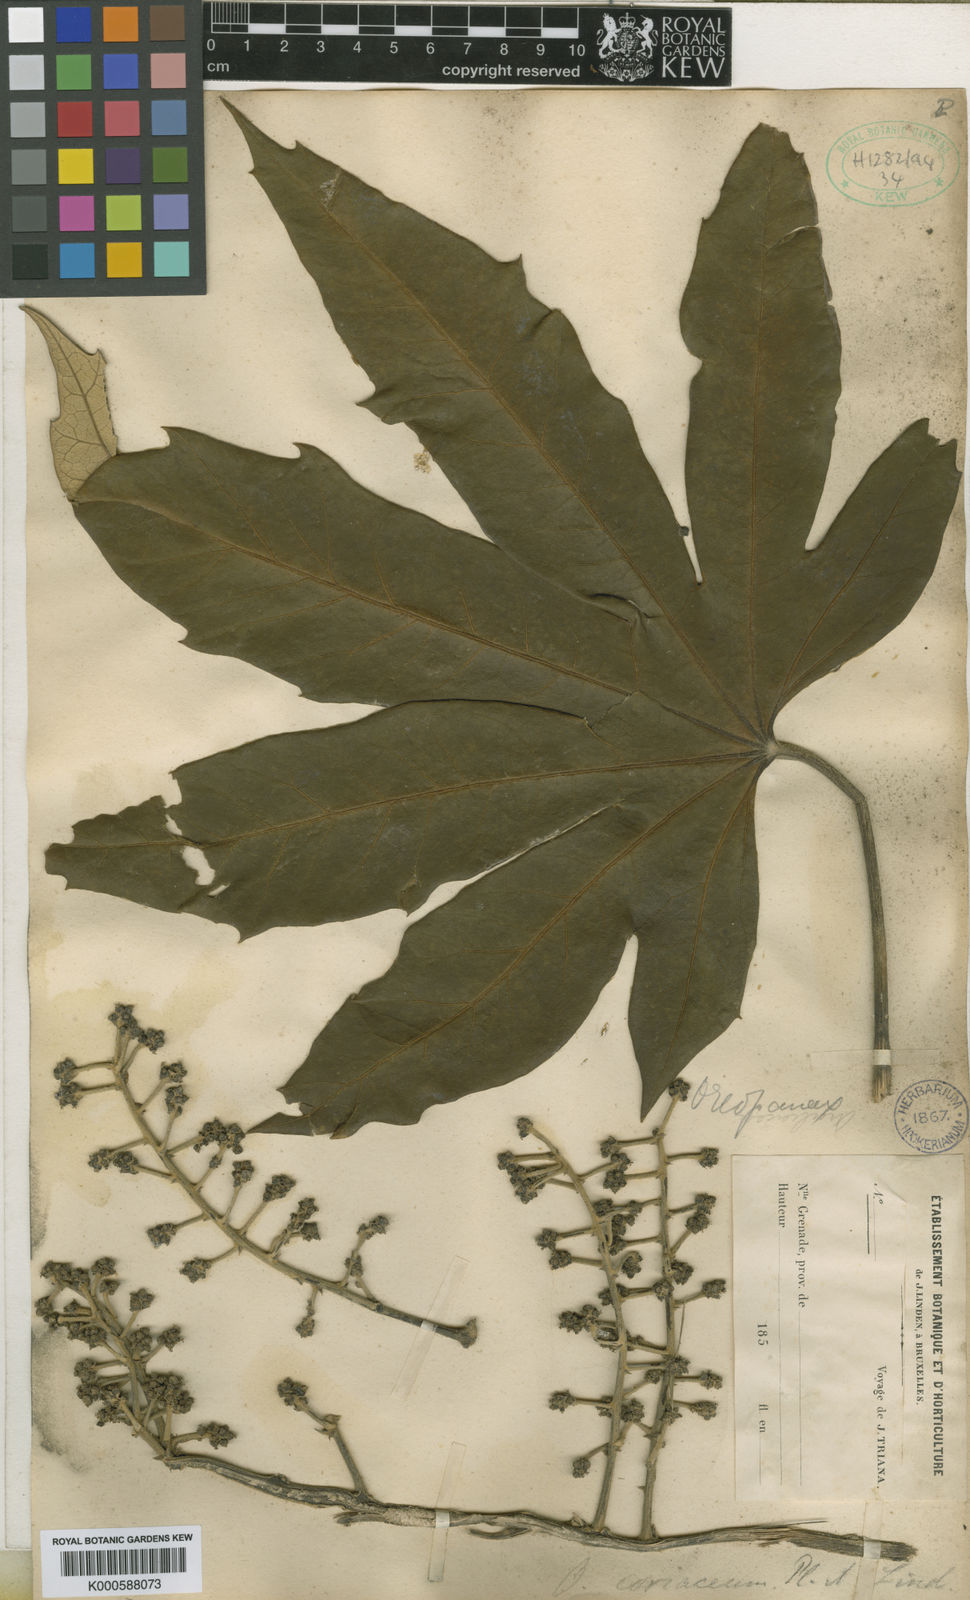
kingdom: Plantae
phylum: Tracheophyta
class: Magnoliopsida
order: Apiales
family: Araliaceae
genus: Oreopanax
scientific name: Oreopanax
